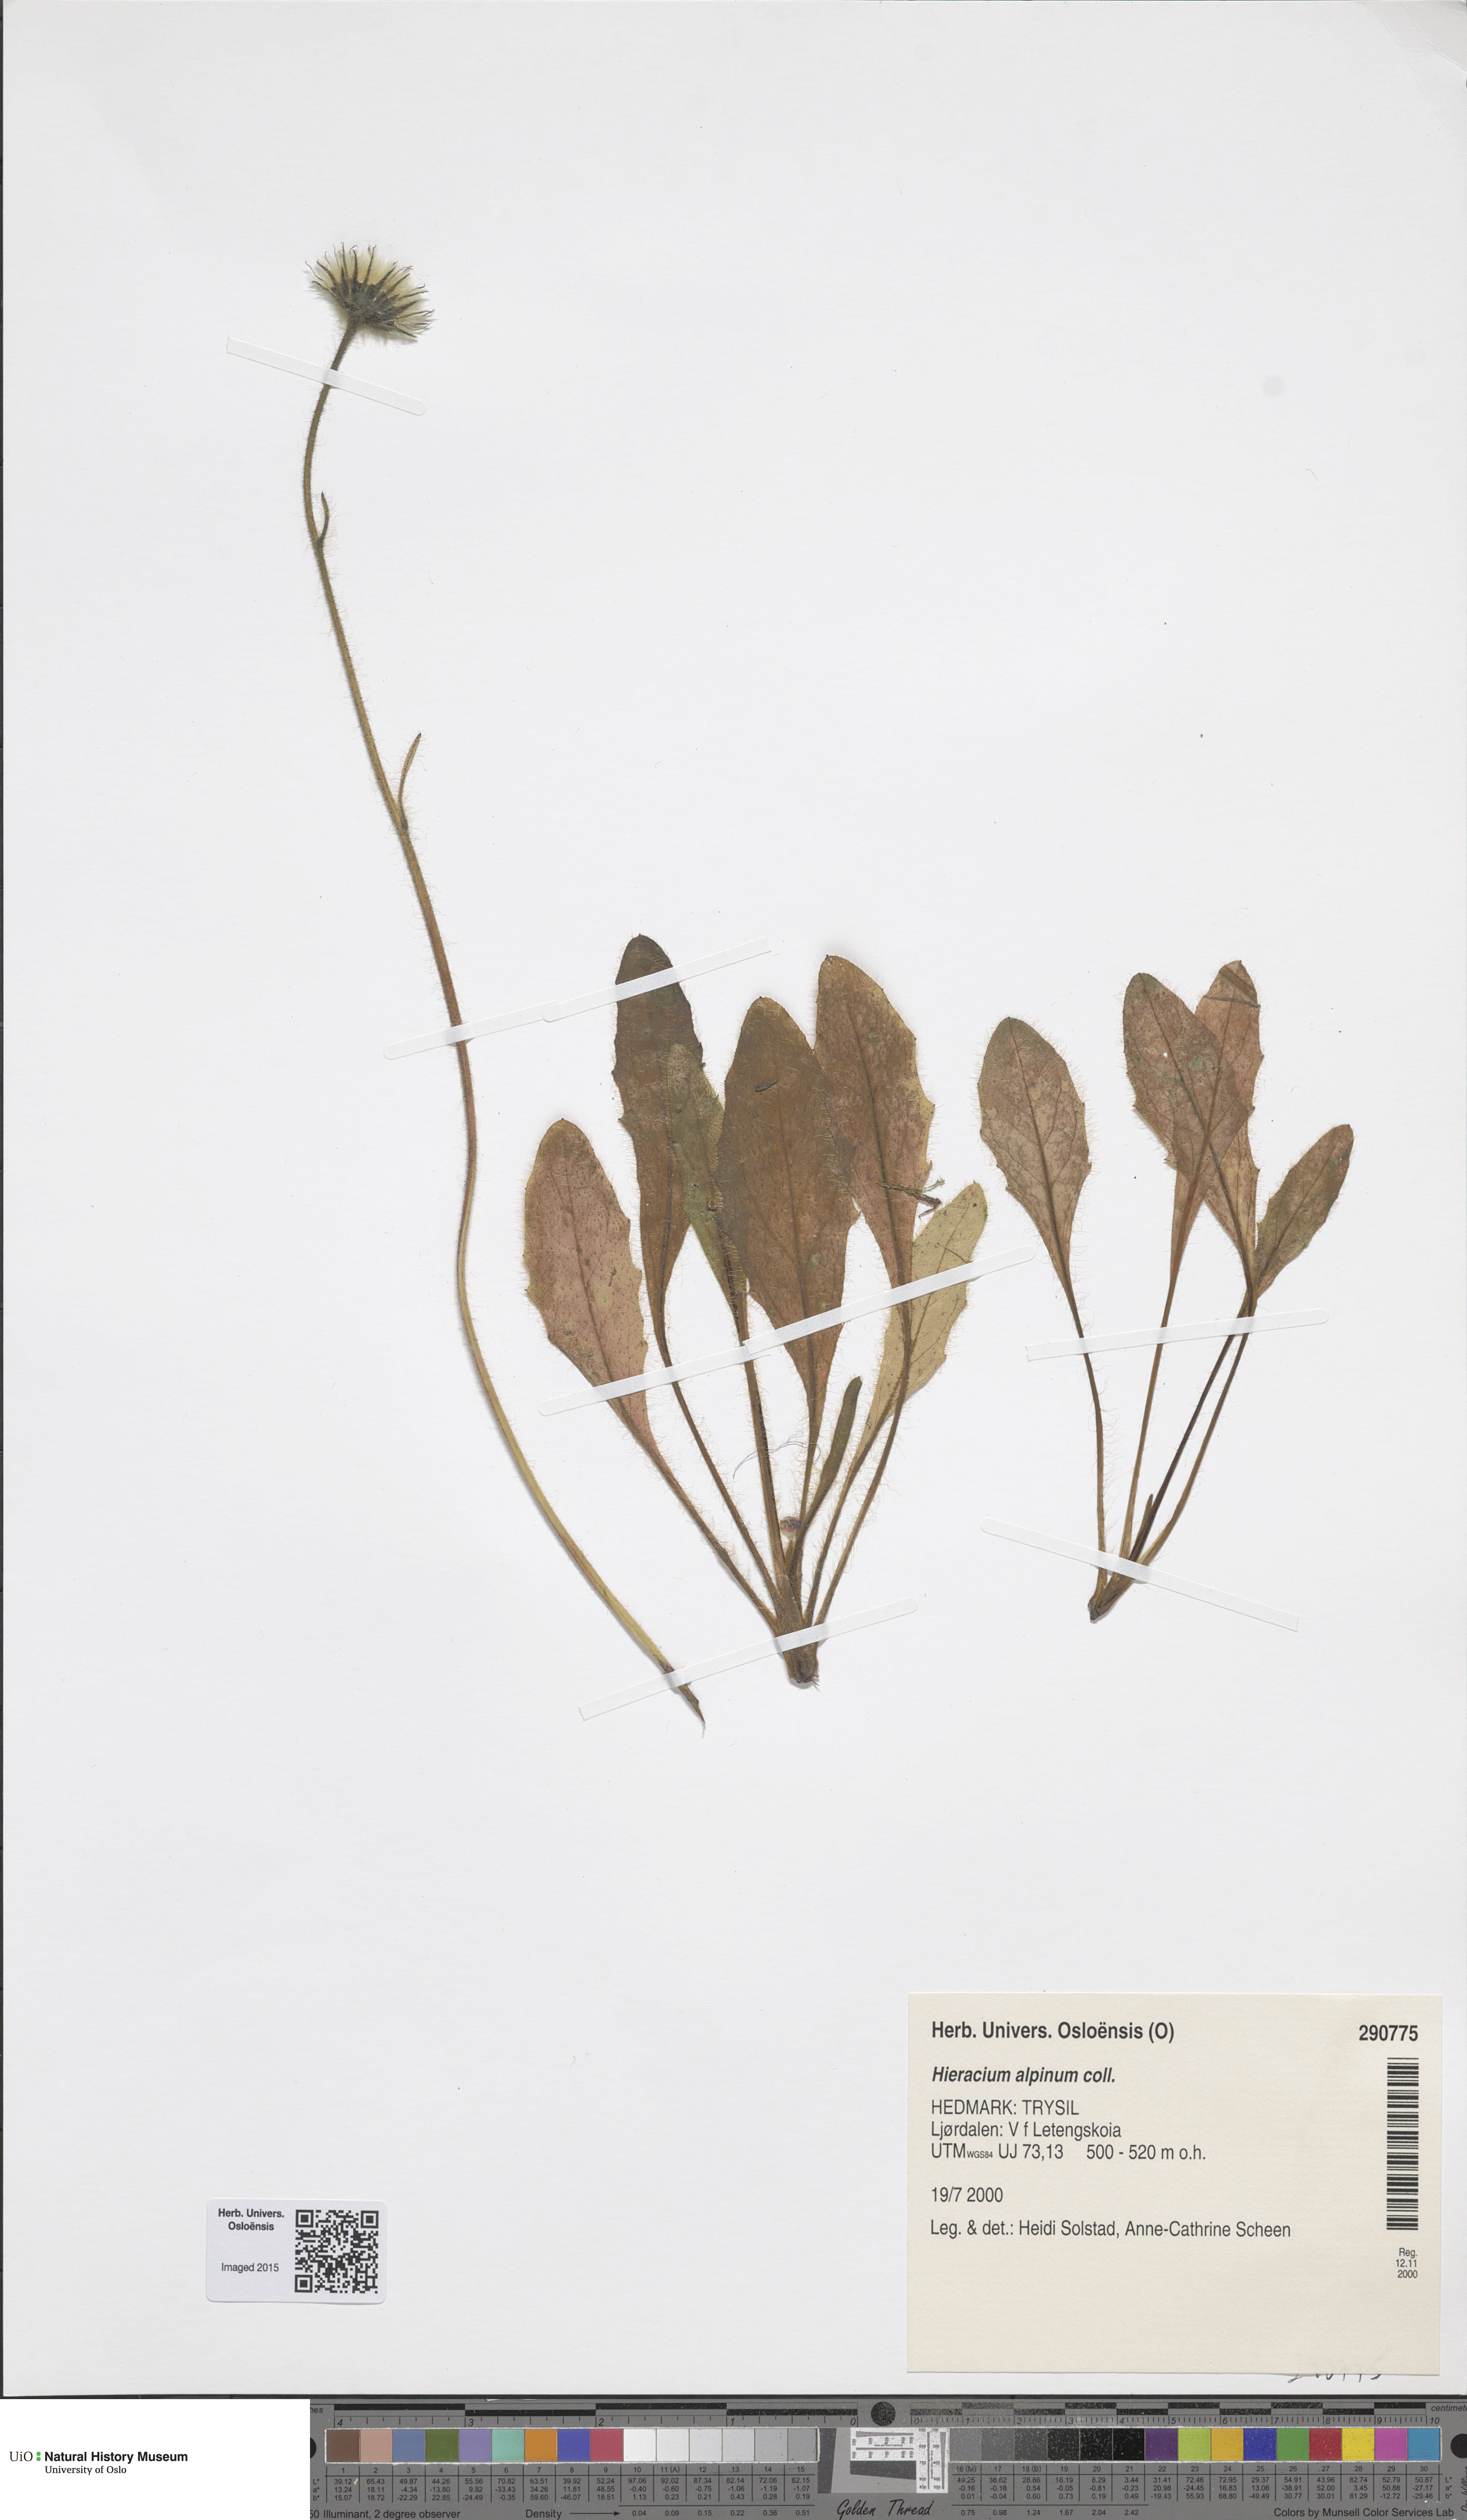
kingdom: Plantae
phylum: Tracheophyta
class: Magnoliopsida
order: Asterales
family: Asteraceae
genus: Hieracium
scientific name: Hieracium alpinum
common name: Alpine hawkweed
